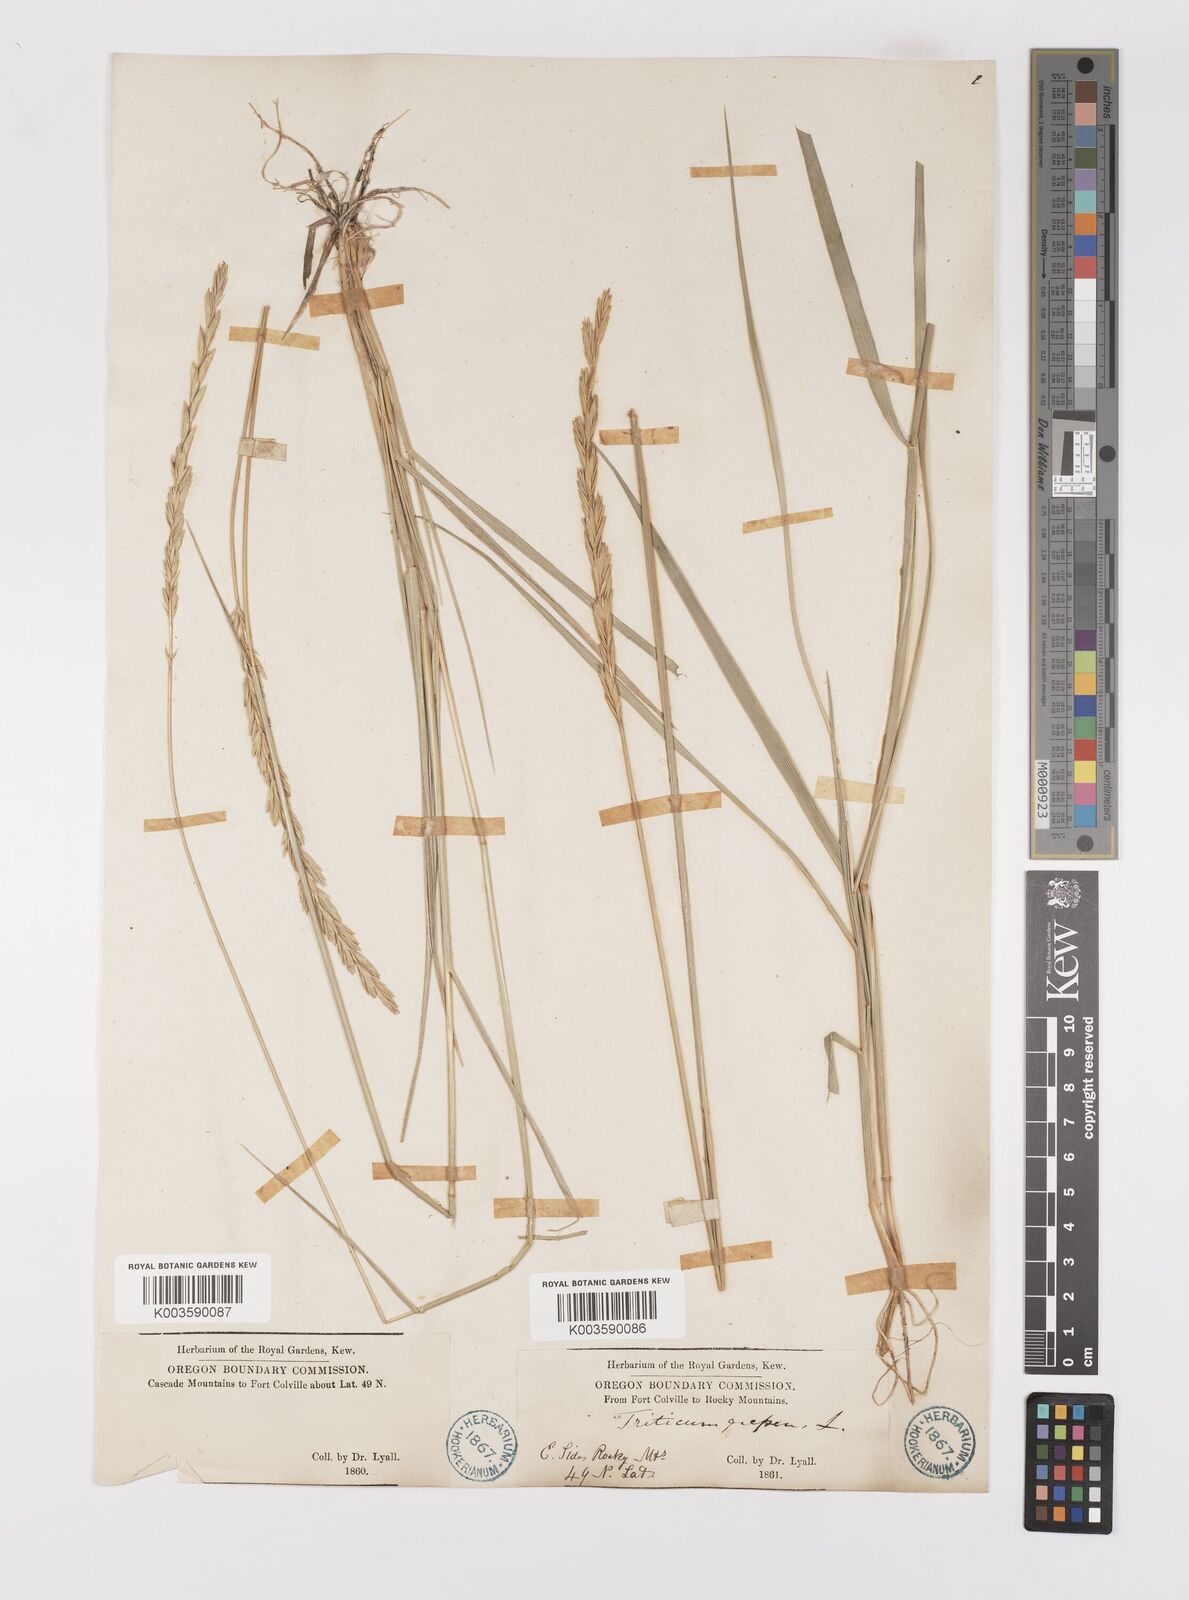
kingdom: Plantae
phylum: Tracheophyta
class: Liliopsida
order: Poales
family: Poaceae
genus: Elymus
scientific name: Elymus repens
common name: Quackgrass
